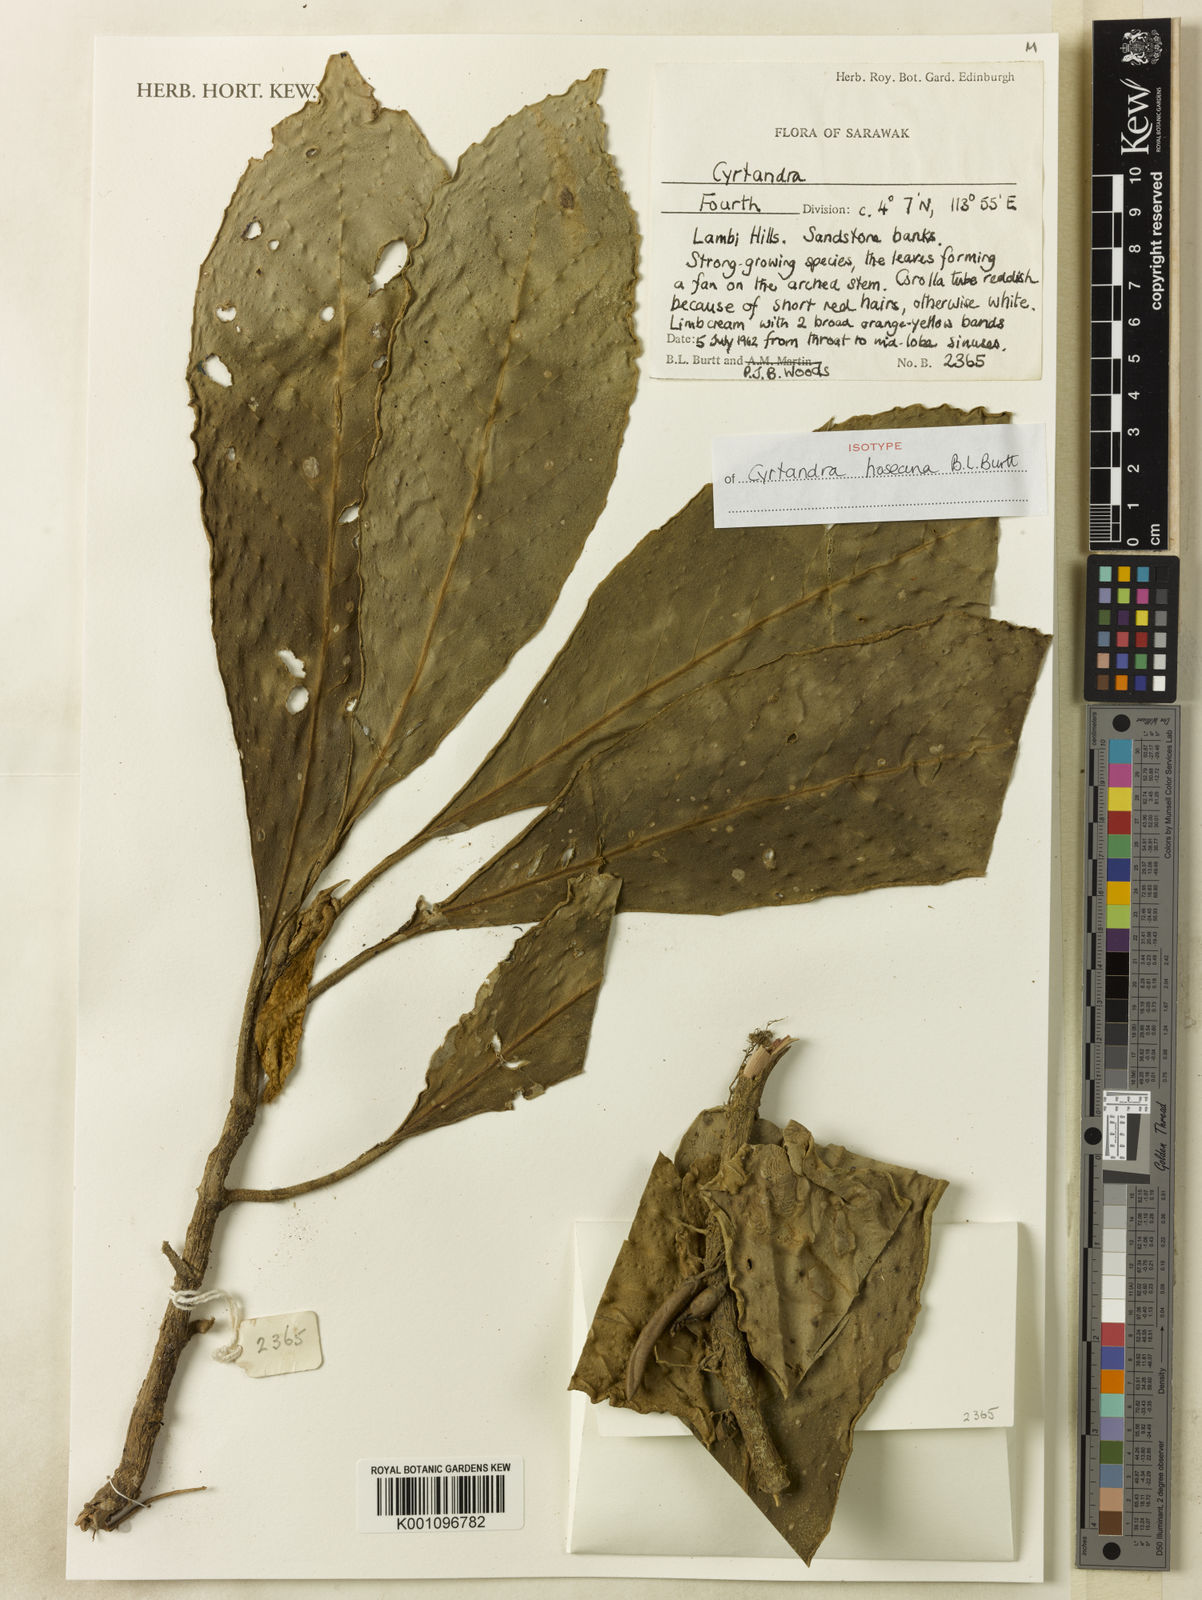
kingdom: Plantae
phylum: Tracheophyta
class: Magnoliopsida
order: Lamiales
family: Gesneriaceae
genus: Cyrtandra
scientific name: Cyrtandra hoseana
